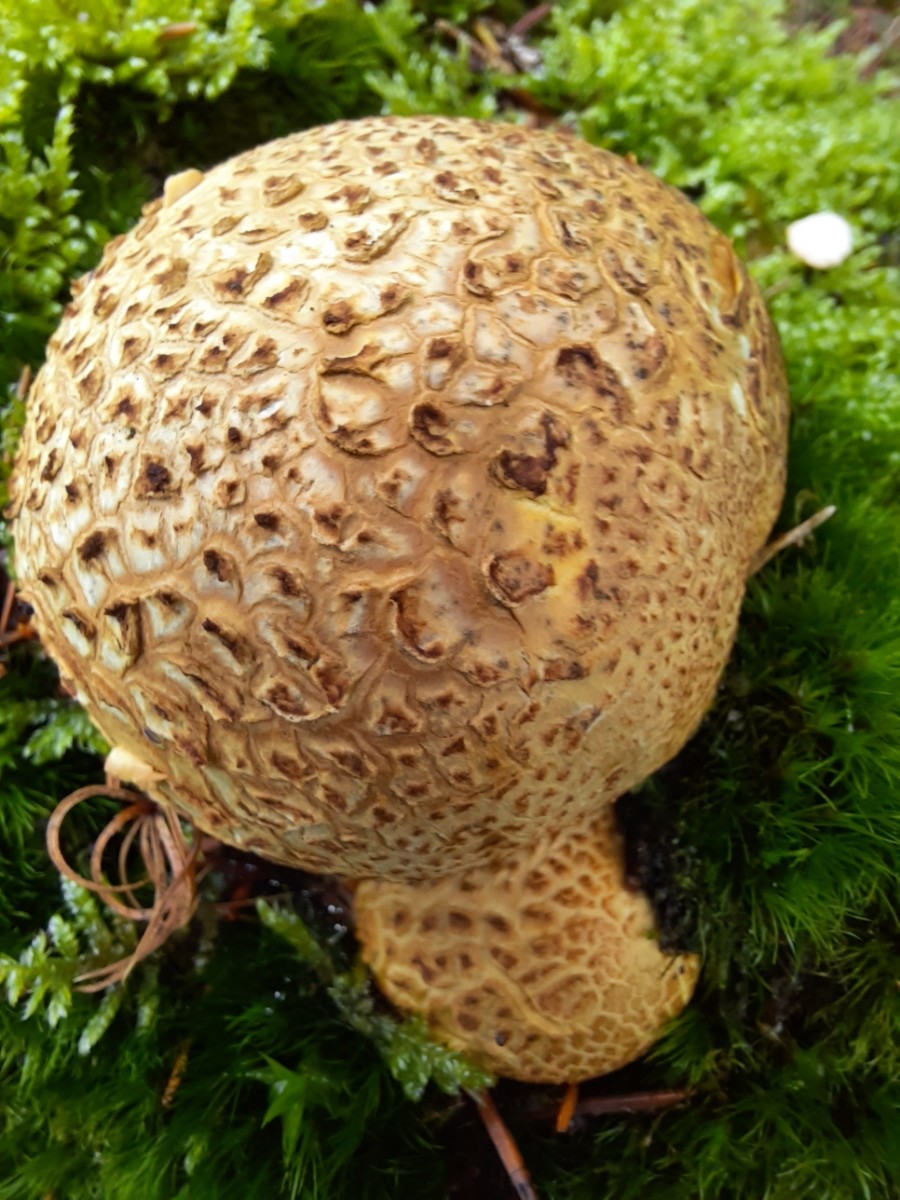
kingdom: Fungi
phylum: Basidiomycota
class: Agaricomycetes
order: Boletales
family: Sclerodermataceae
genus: Scleroderma
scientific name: Scleroderma citrinum
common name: almindelig bruskbold
